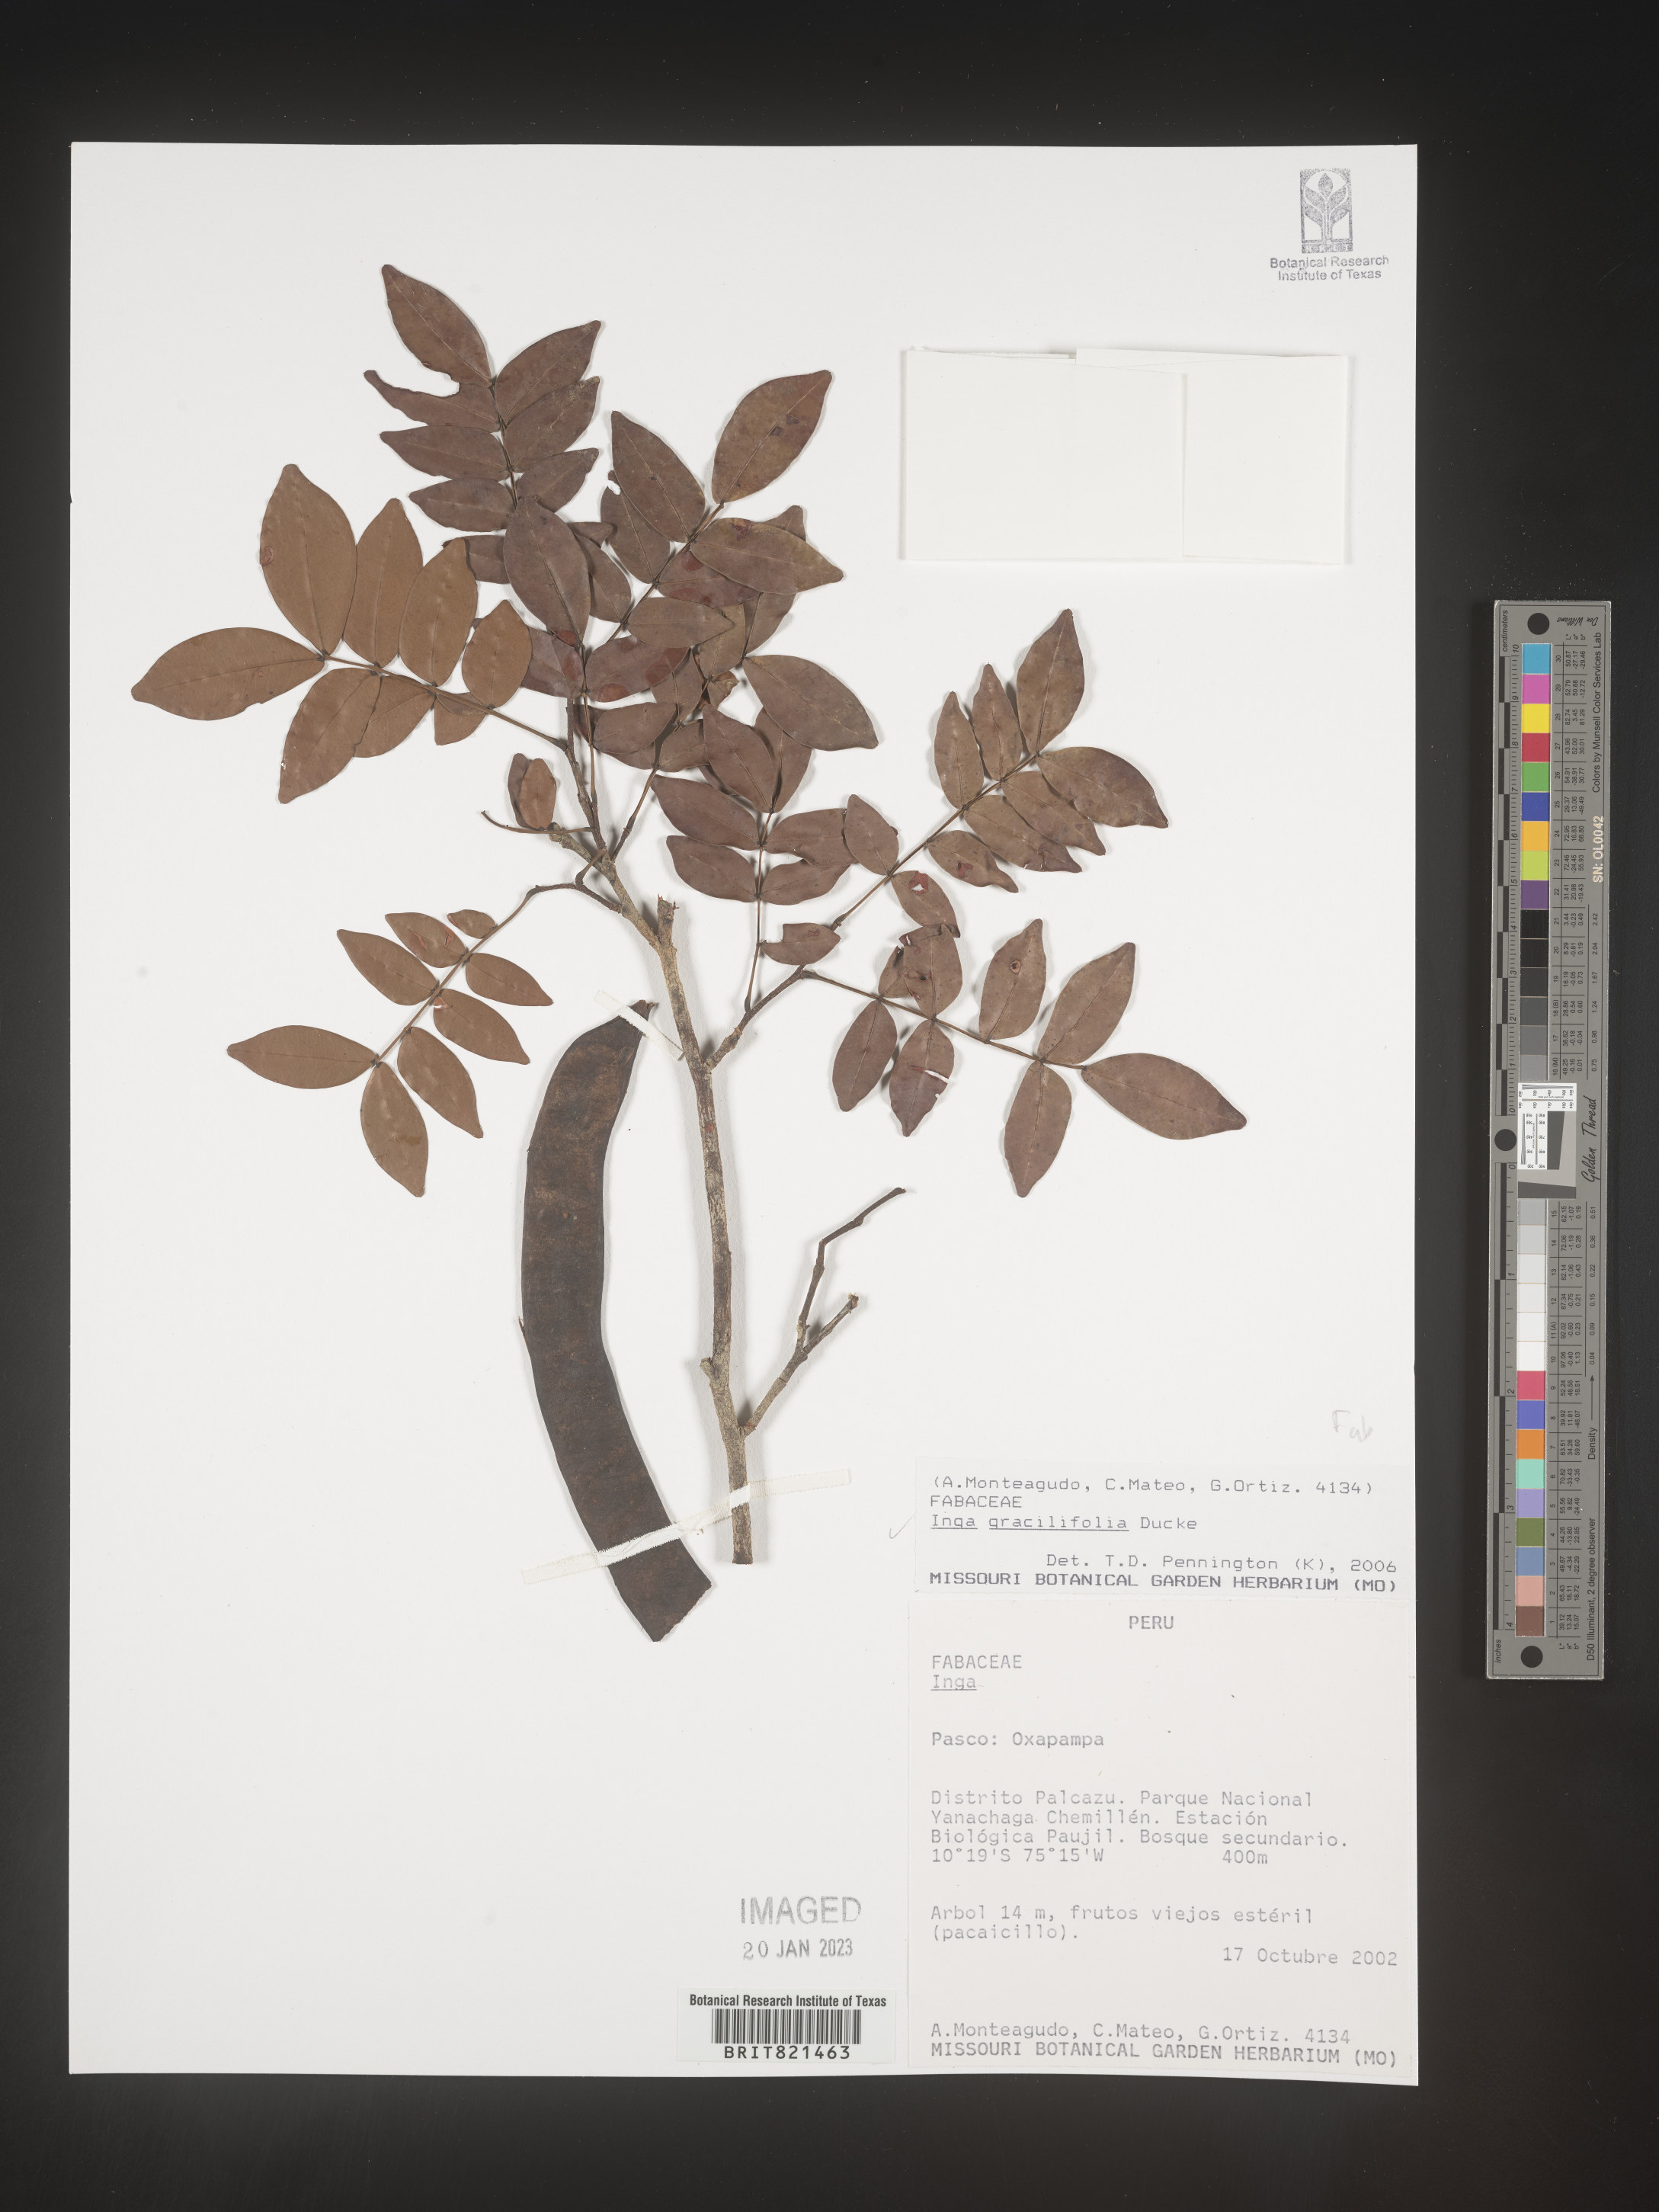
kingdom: Plantae
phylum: Tracheophyta
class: Magnoliopsida
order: Fabales
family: Fabaceae
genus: Inga
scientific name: Inga
